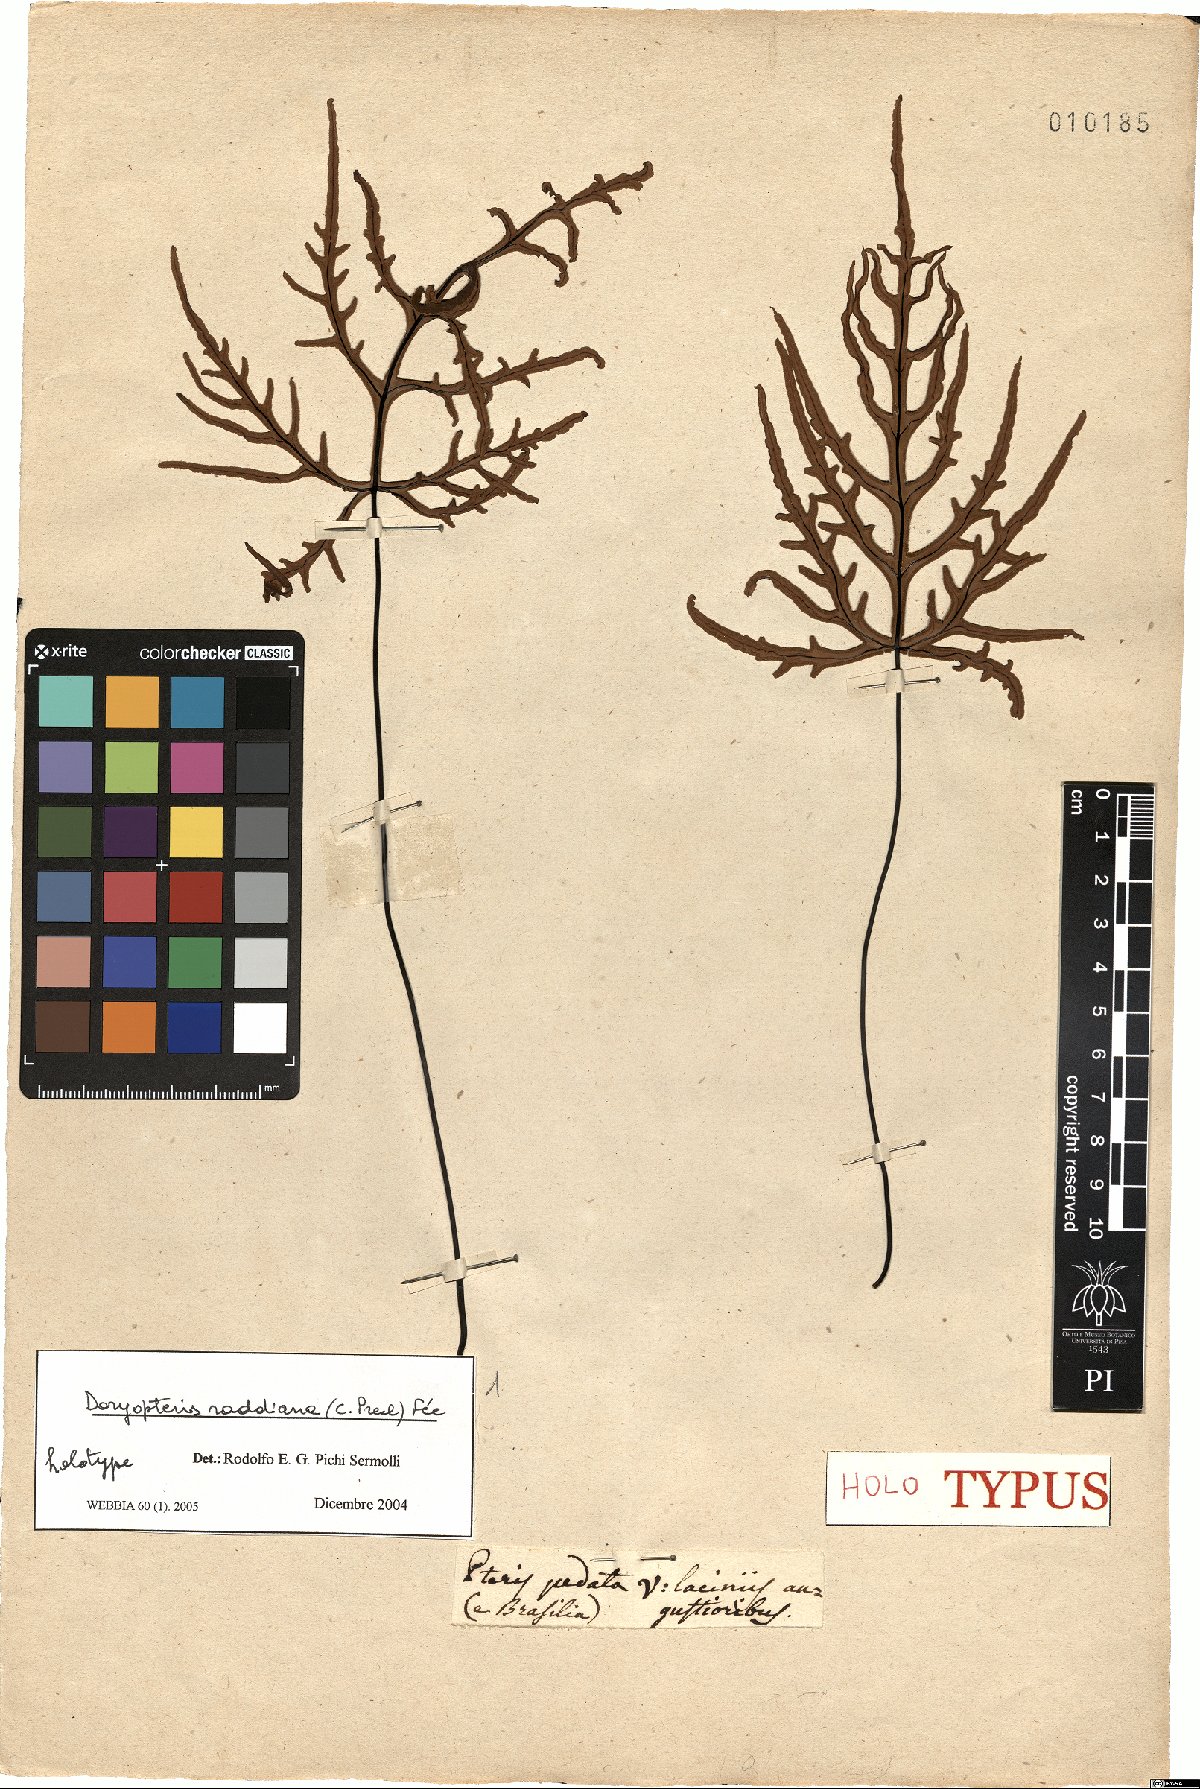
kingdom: Plantae
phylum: Tracheophyta
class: Polypodiopsida
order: Polypodiales
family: Pteridaceae
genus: Doryopteris
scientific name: Doryopteris raddiana
